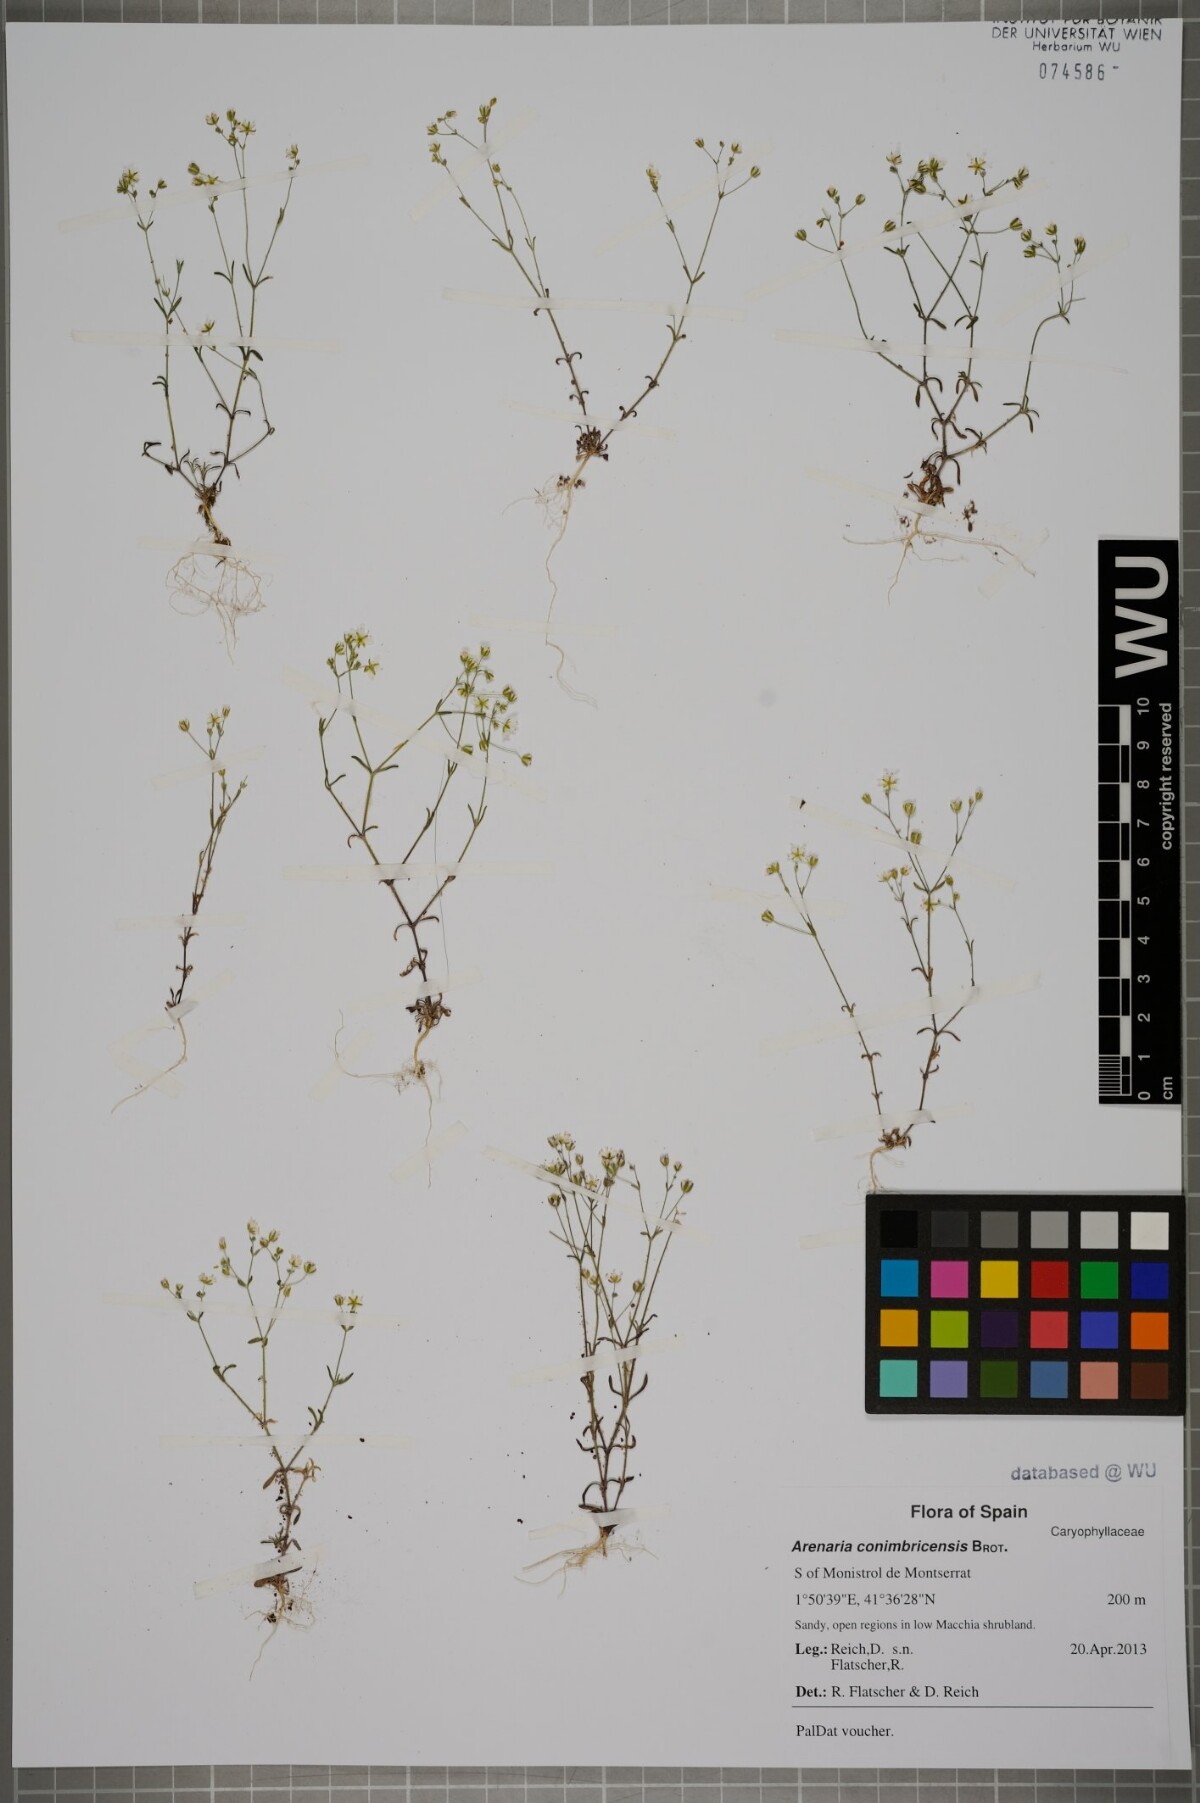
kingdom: Plantae
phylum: Tracheophyta
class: Magnoliopsida
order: Caryophyllales
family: Caryophyllaceae
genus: Arenaria
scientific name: Arenaria conimbricensis
